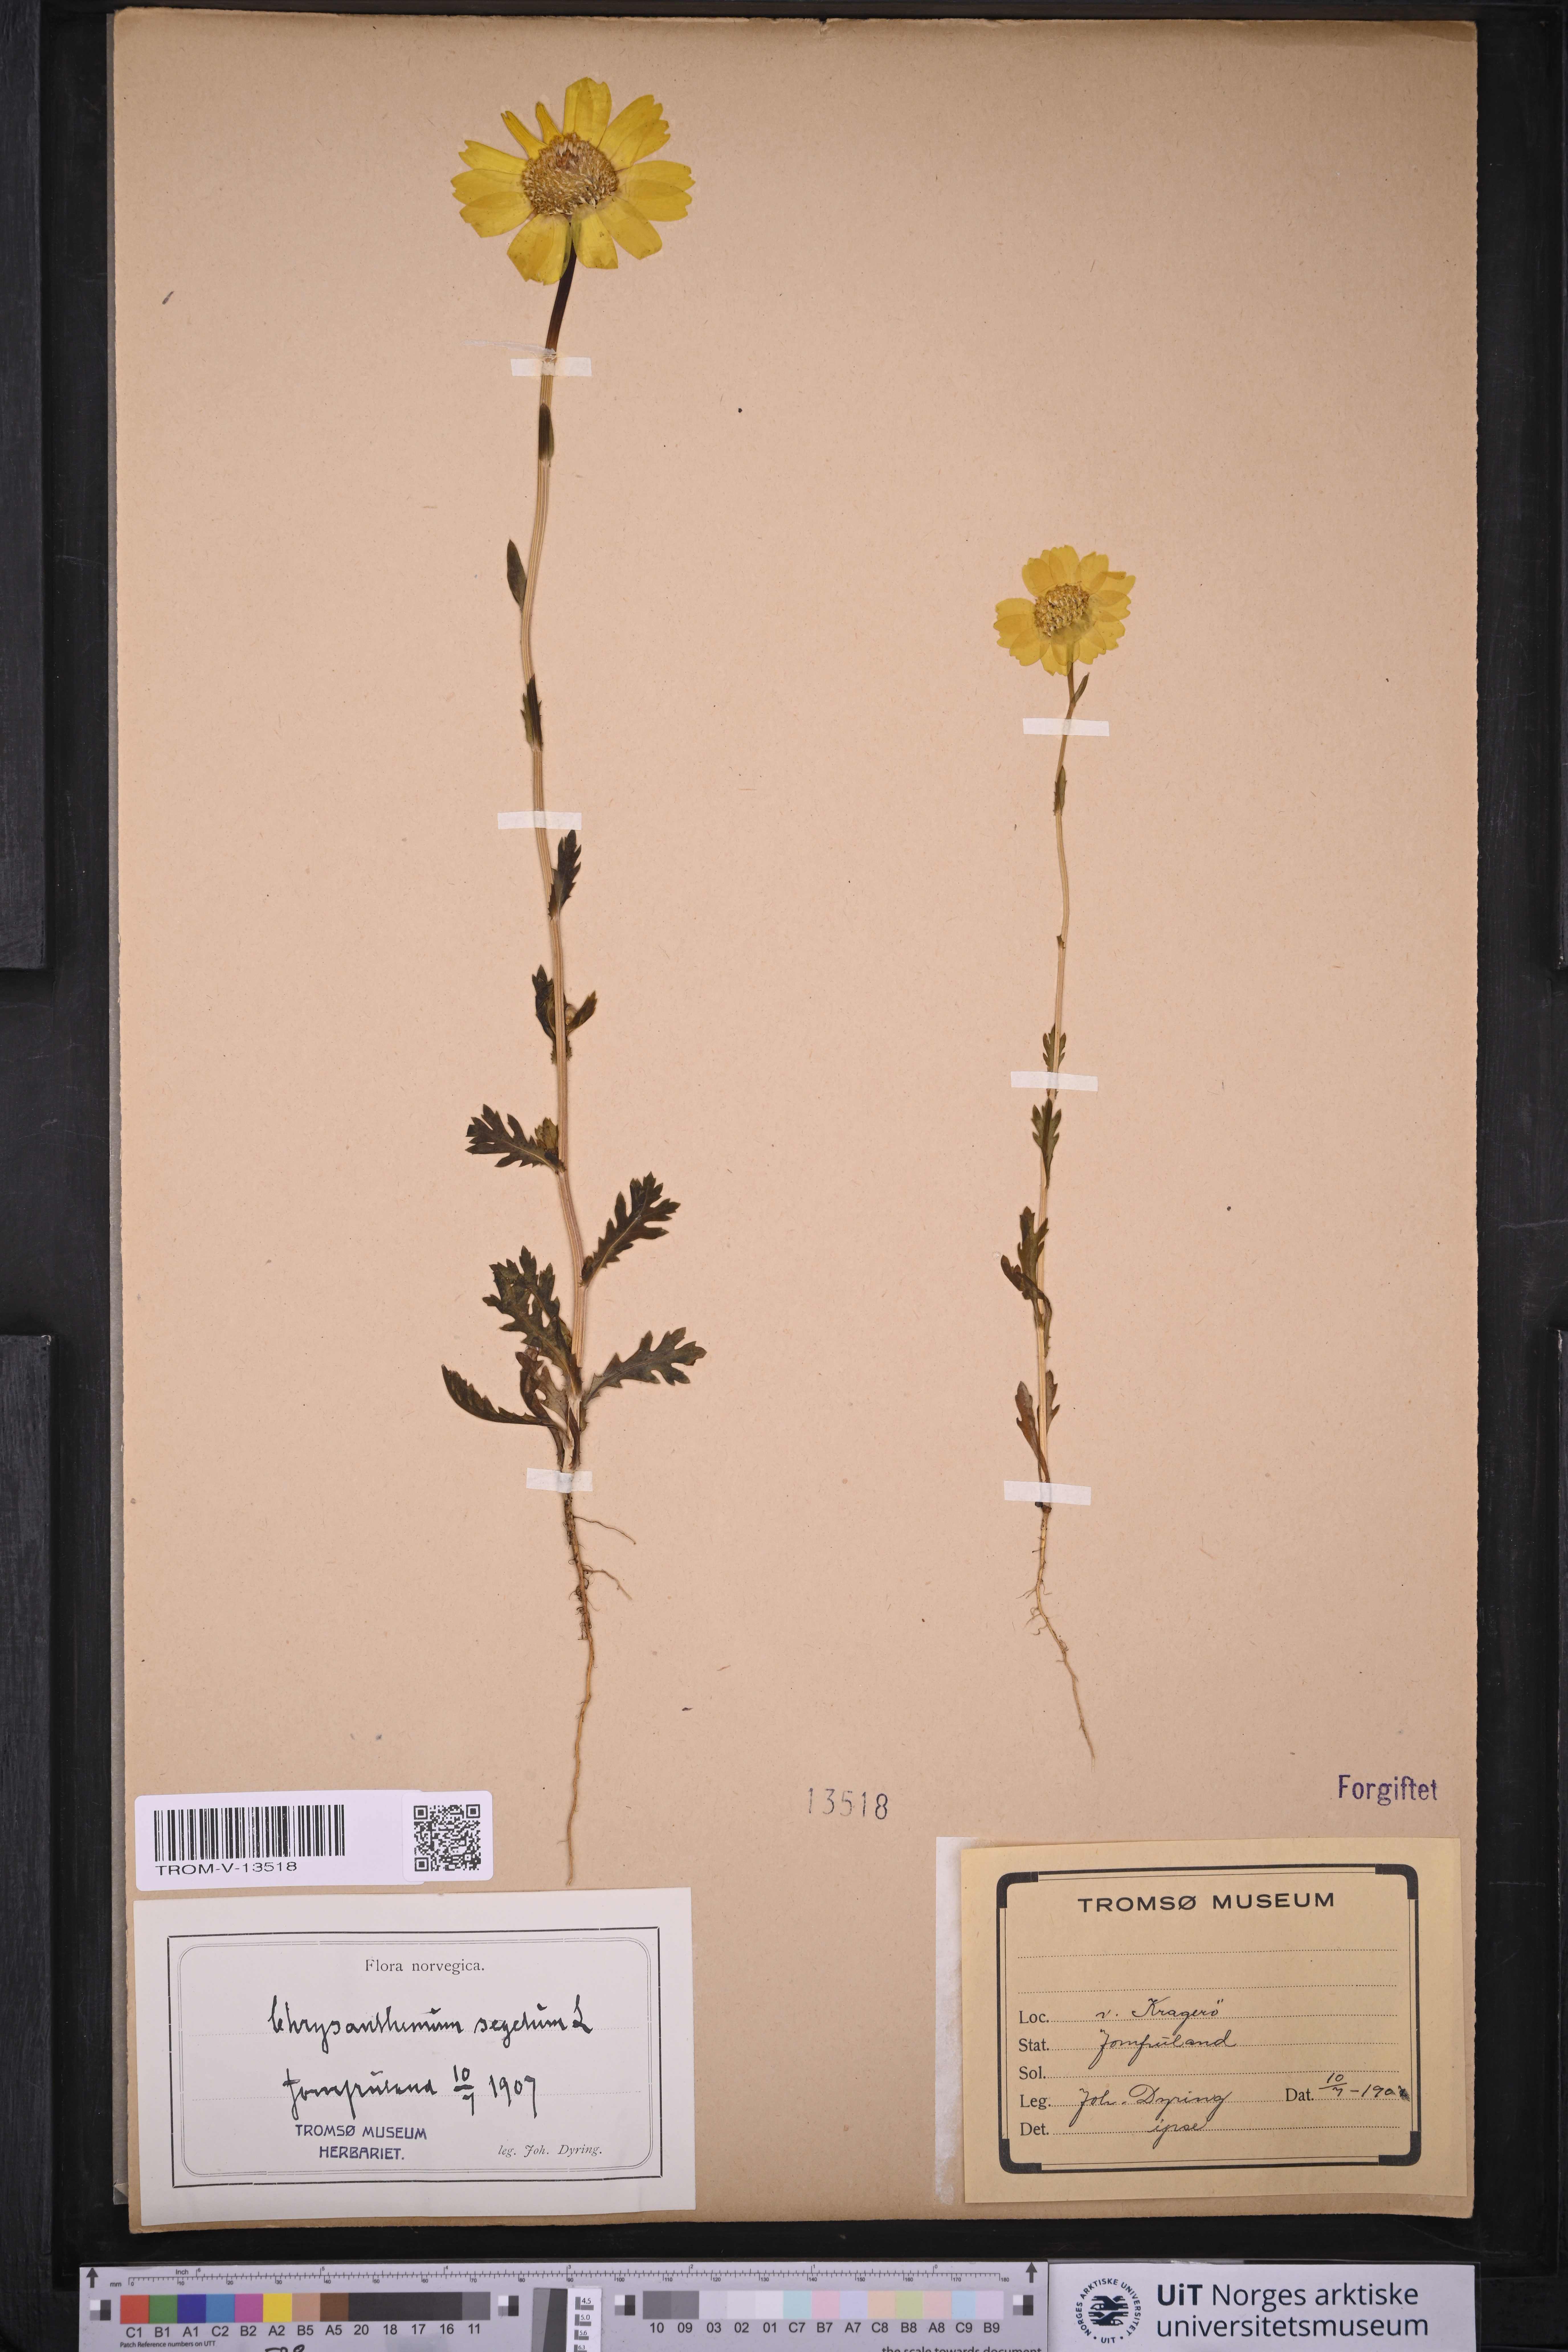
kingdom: Plantae
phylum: Tracheophyta
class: Magnoliopsida
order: Asterales
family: Asteraceae
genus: Glebionis
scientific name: Glebionis segetum
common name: Corndaisy
